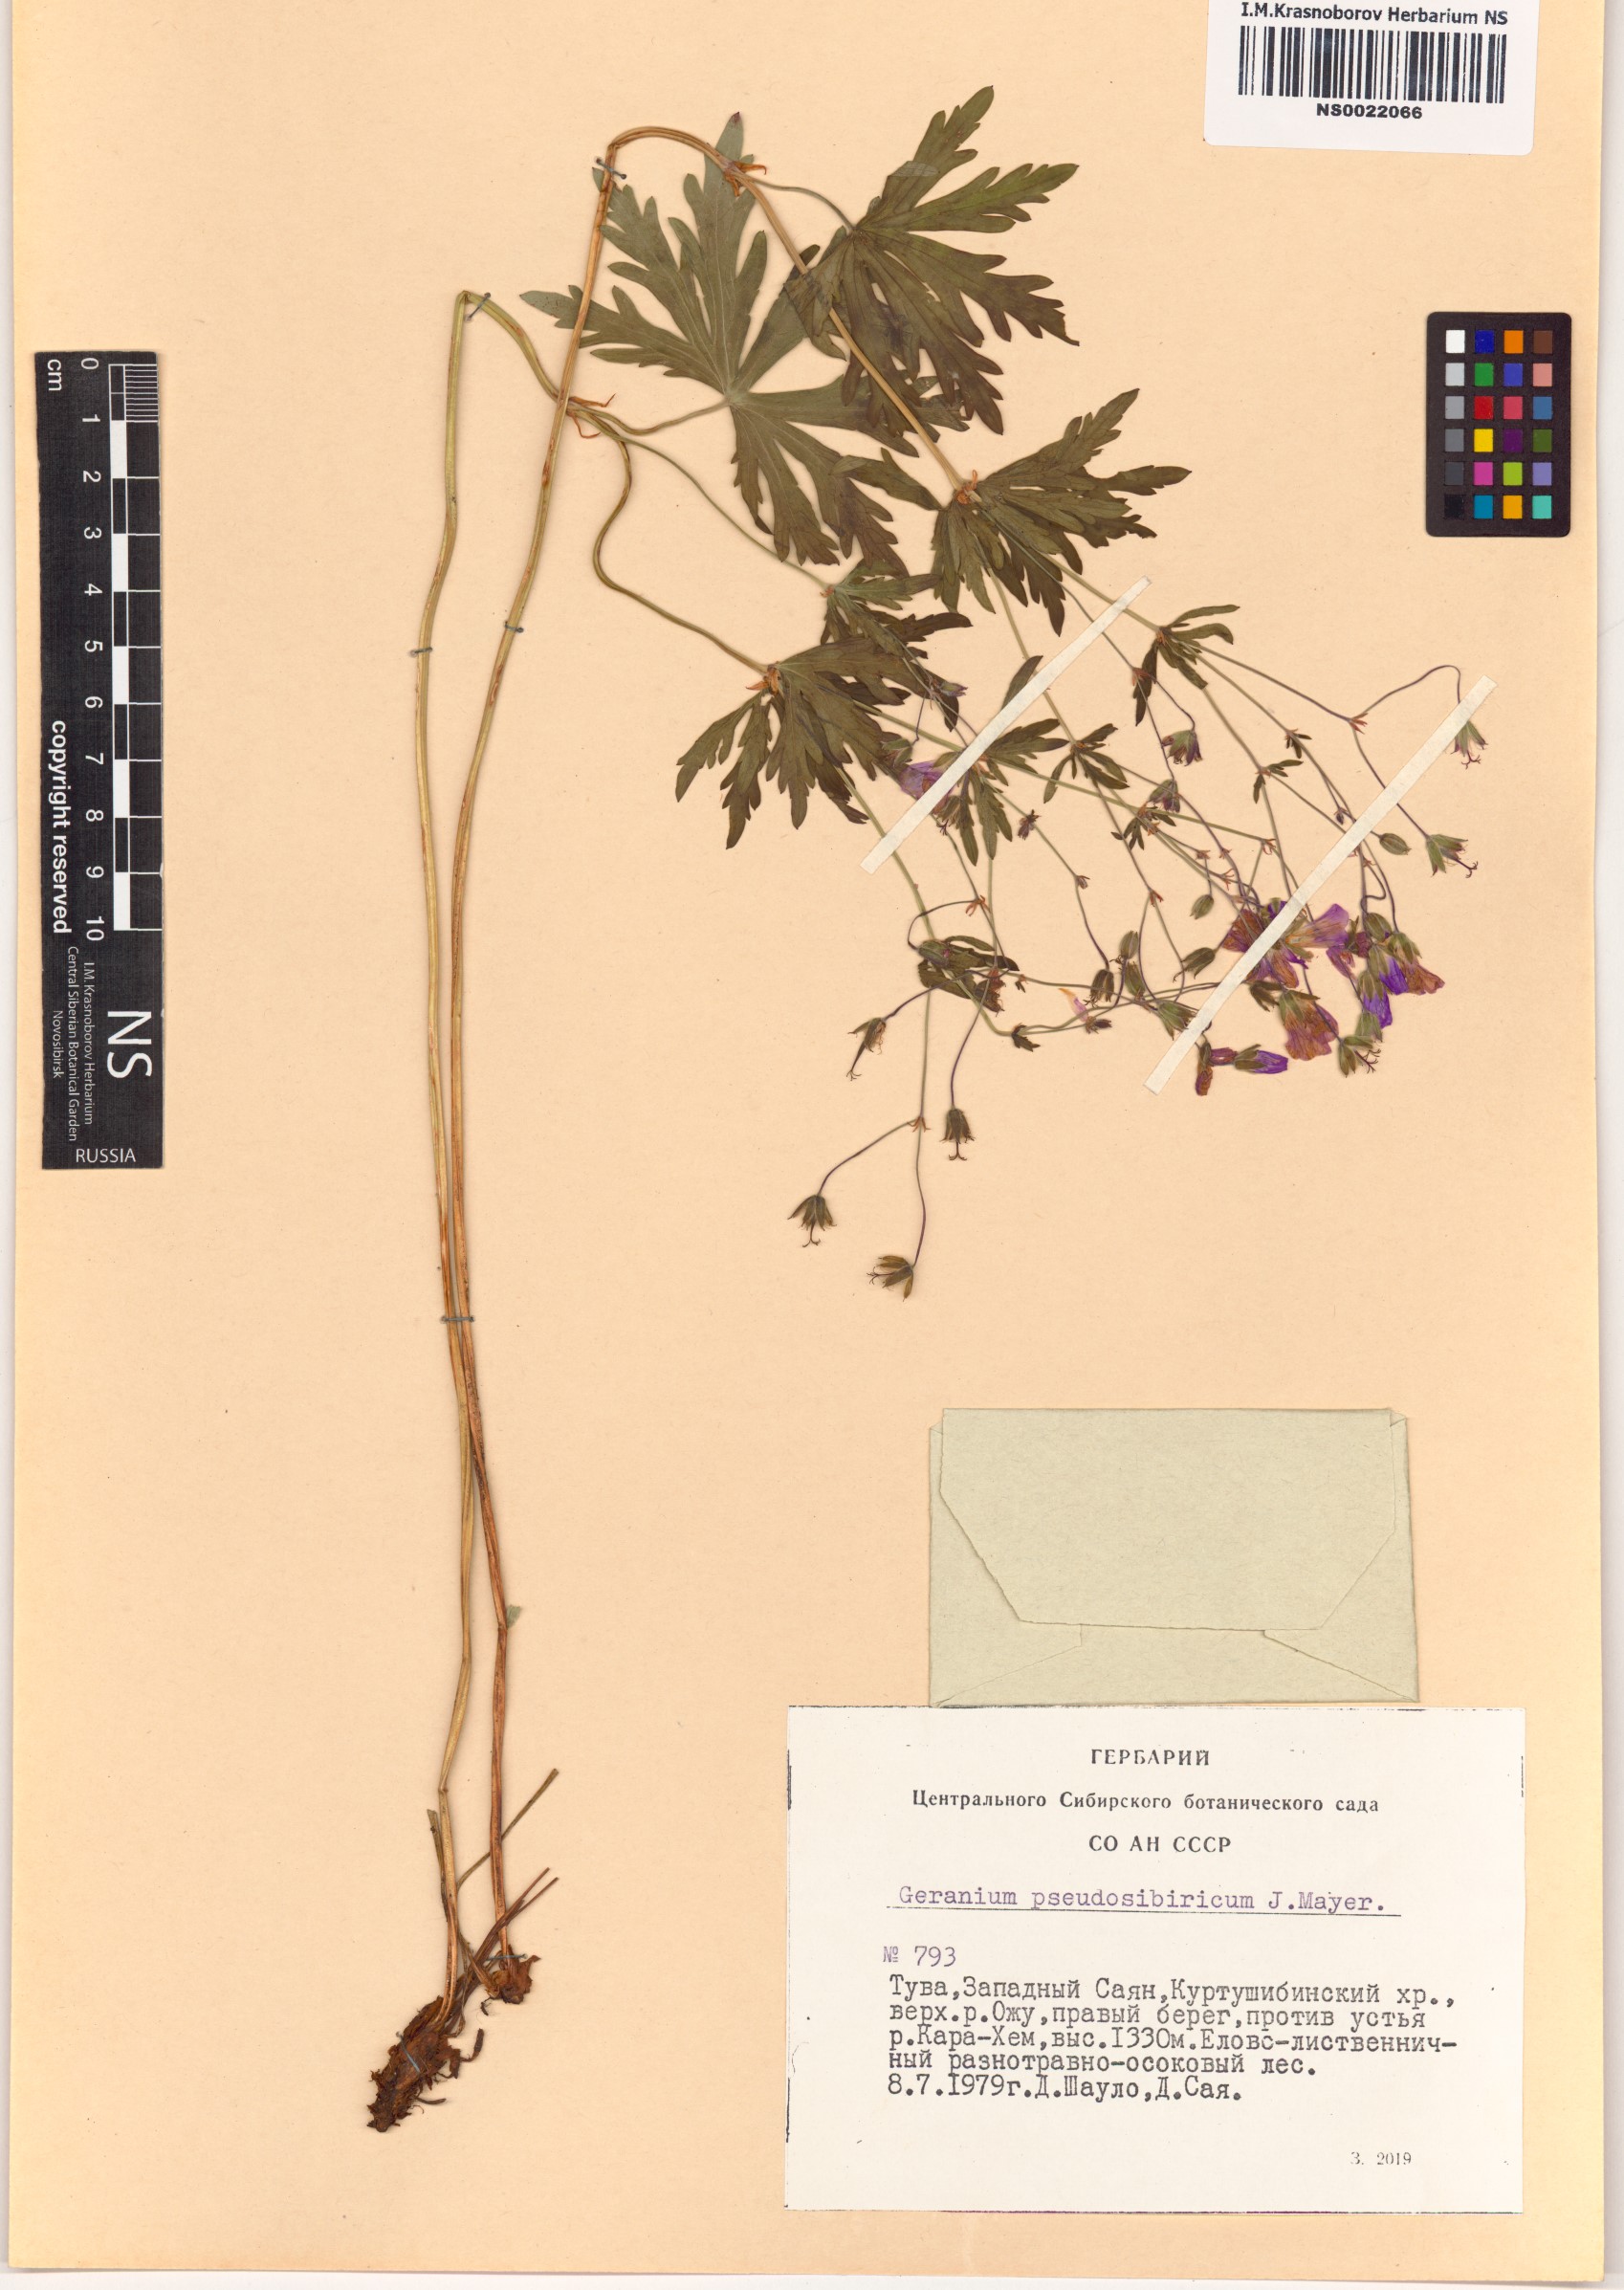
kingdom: Plantae
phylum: Tracheophyta
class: Magnoliopsida
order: Geraniales
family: Geraniaceae
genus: Geranium
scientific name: Geranium pseudosibiricum
